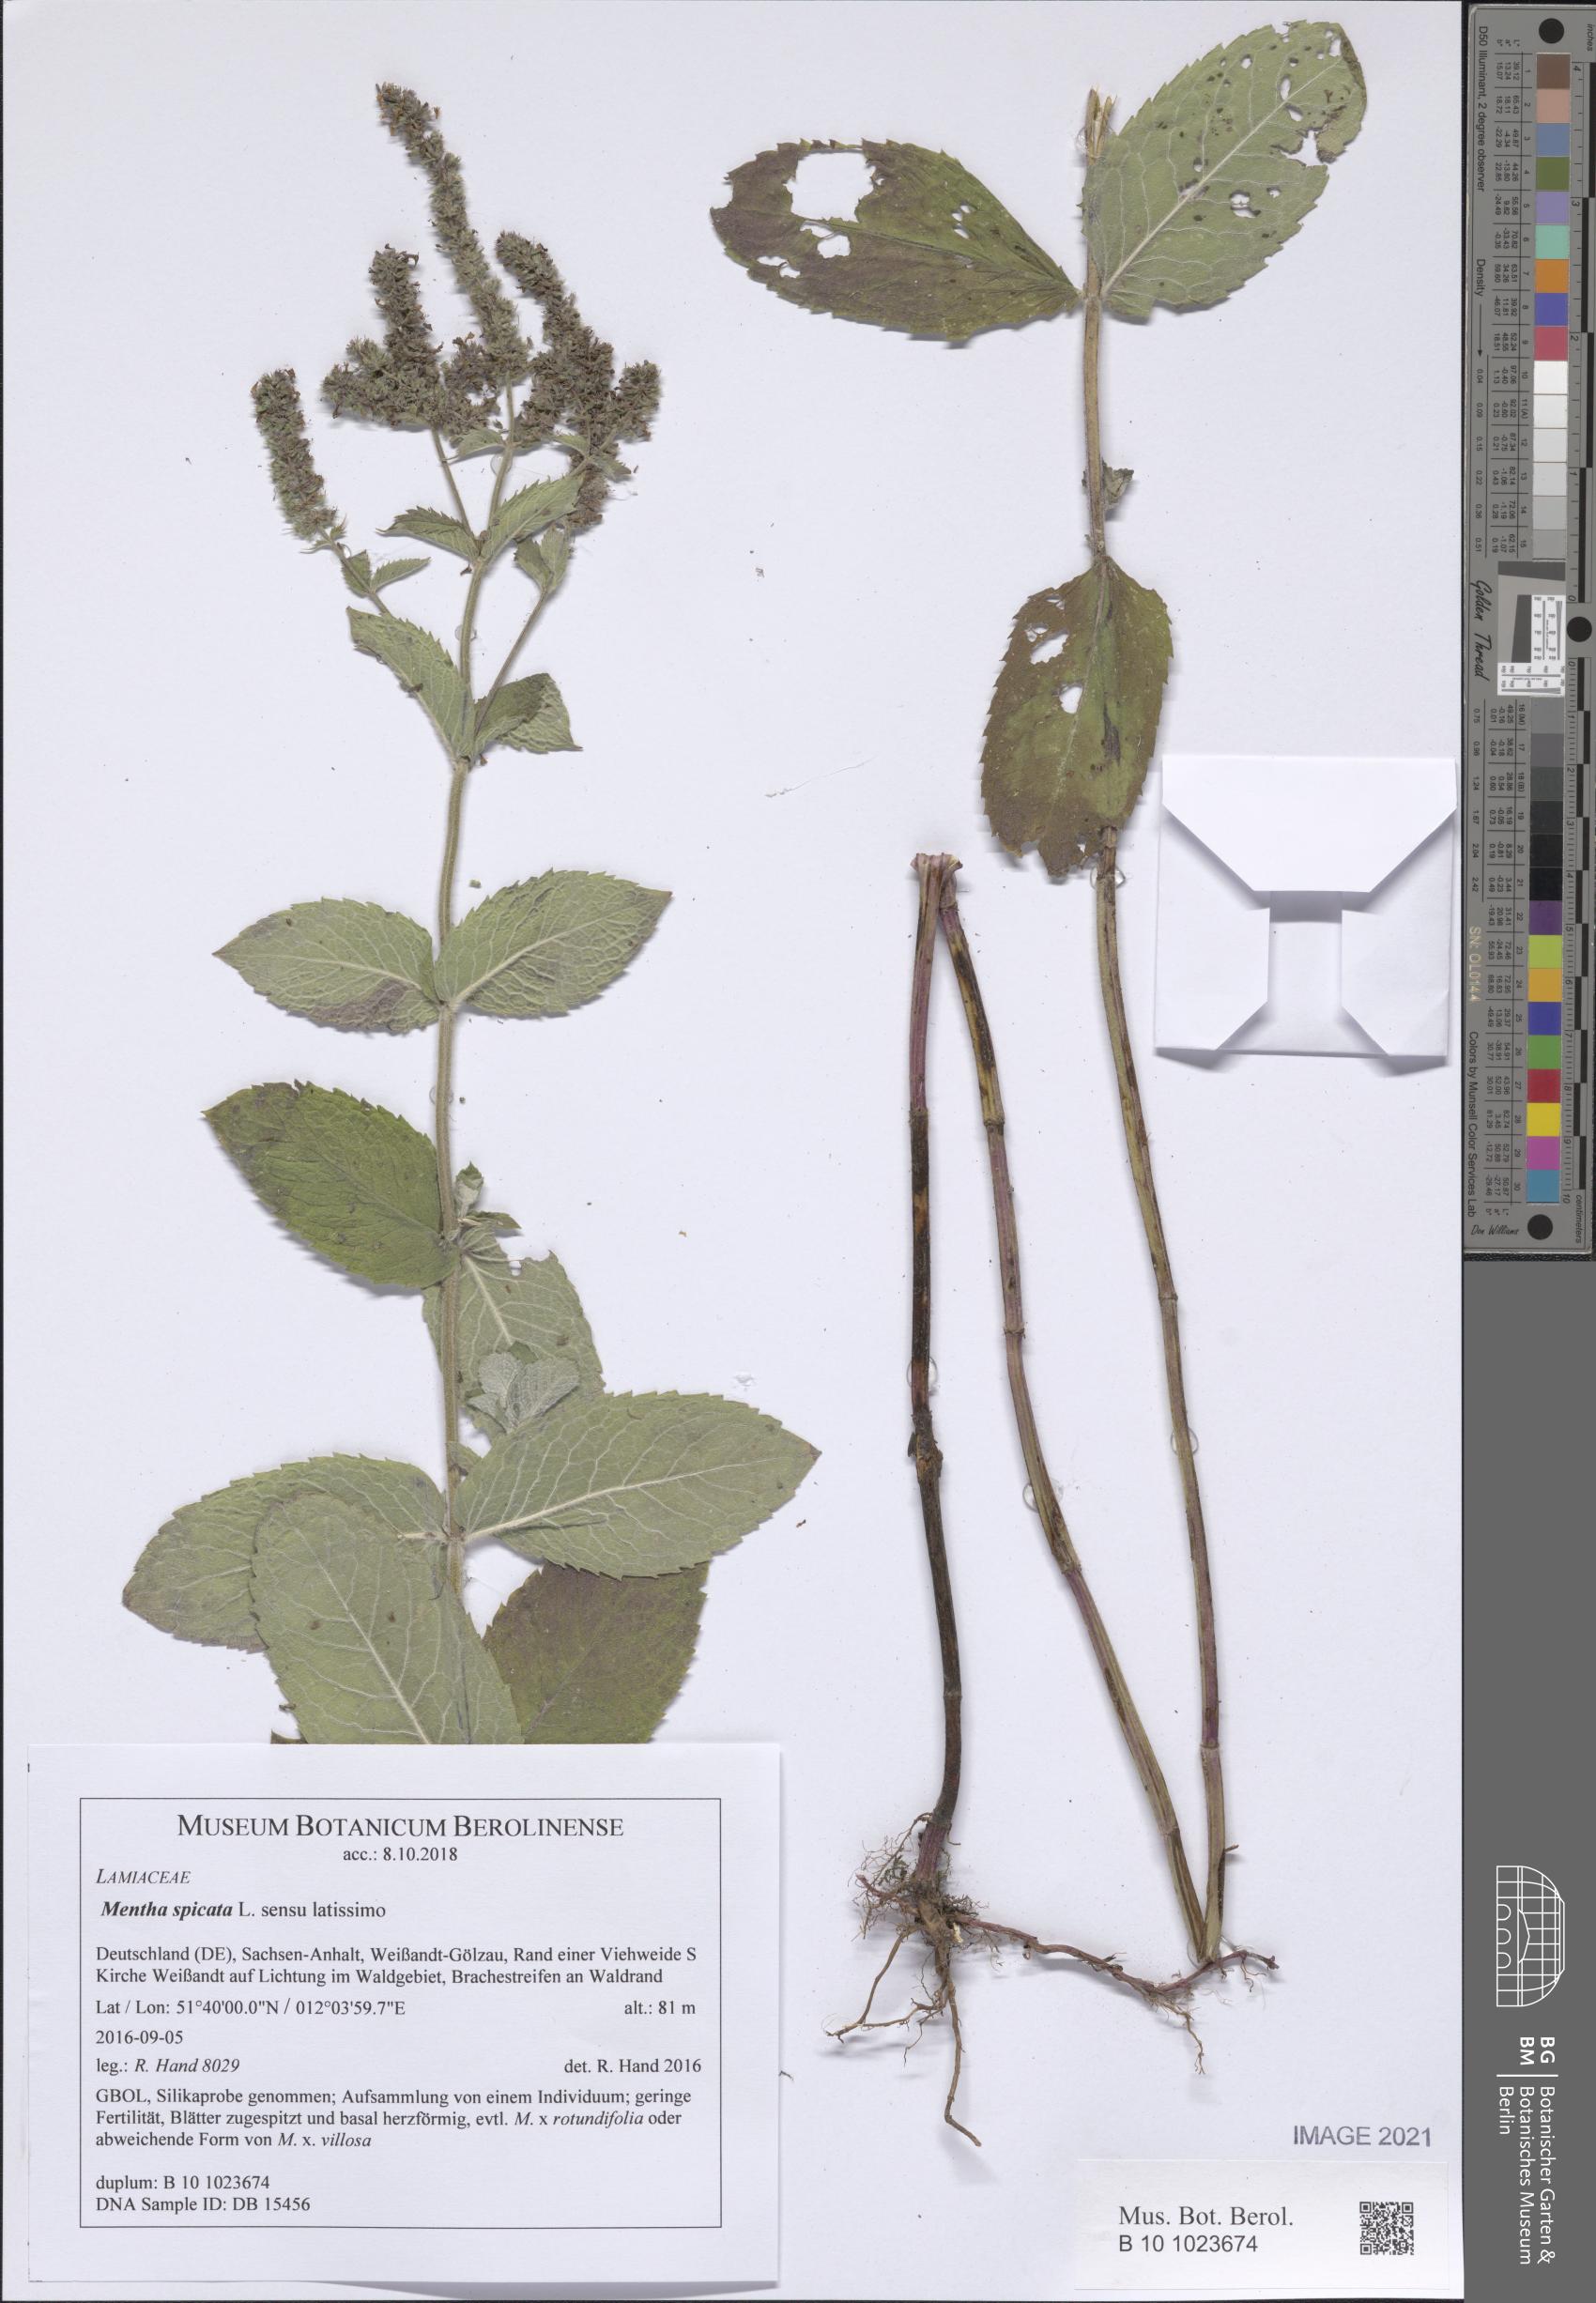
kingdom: Plantae
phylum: Tracheophyta
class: Magnoliopsida
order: Lamiales
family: Lamiaceae
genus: Mentha
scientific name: Mentha spicata
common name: Spearmint
